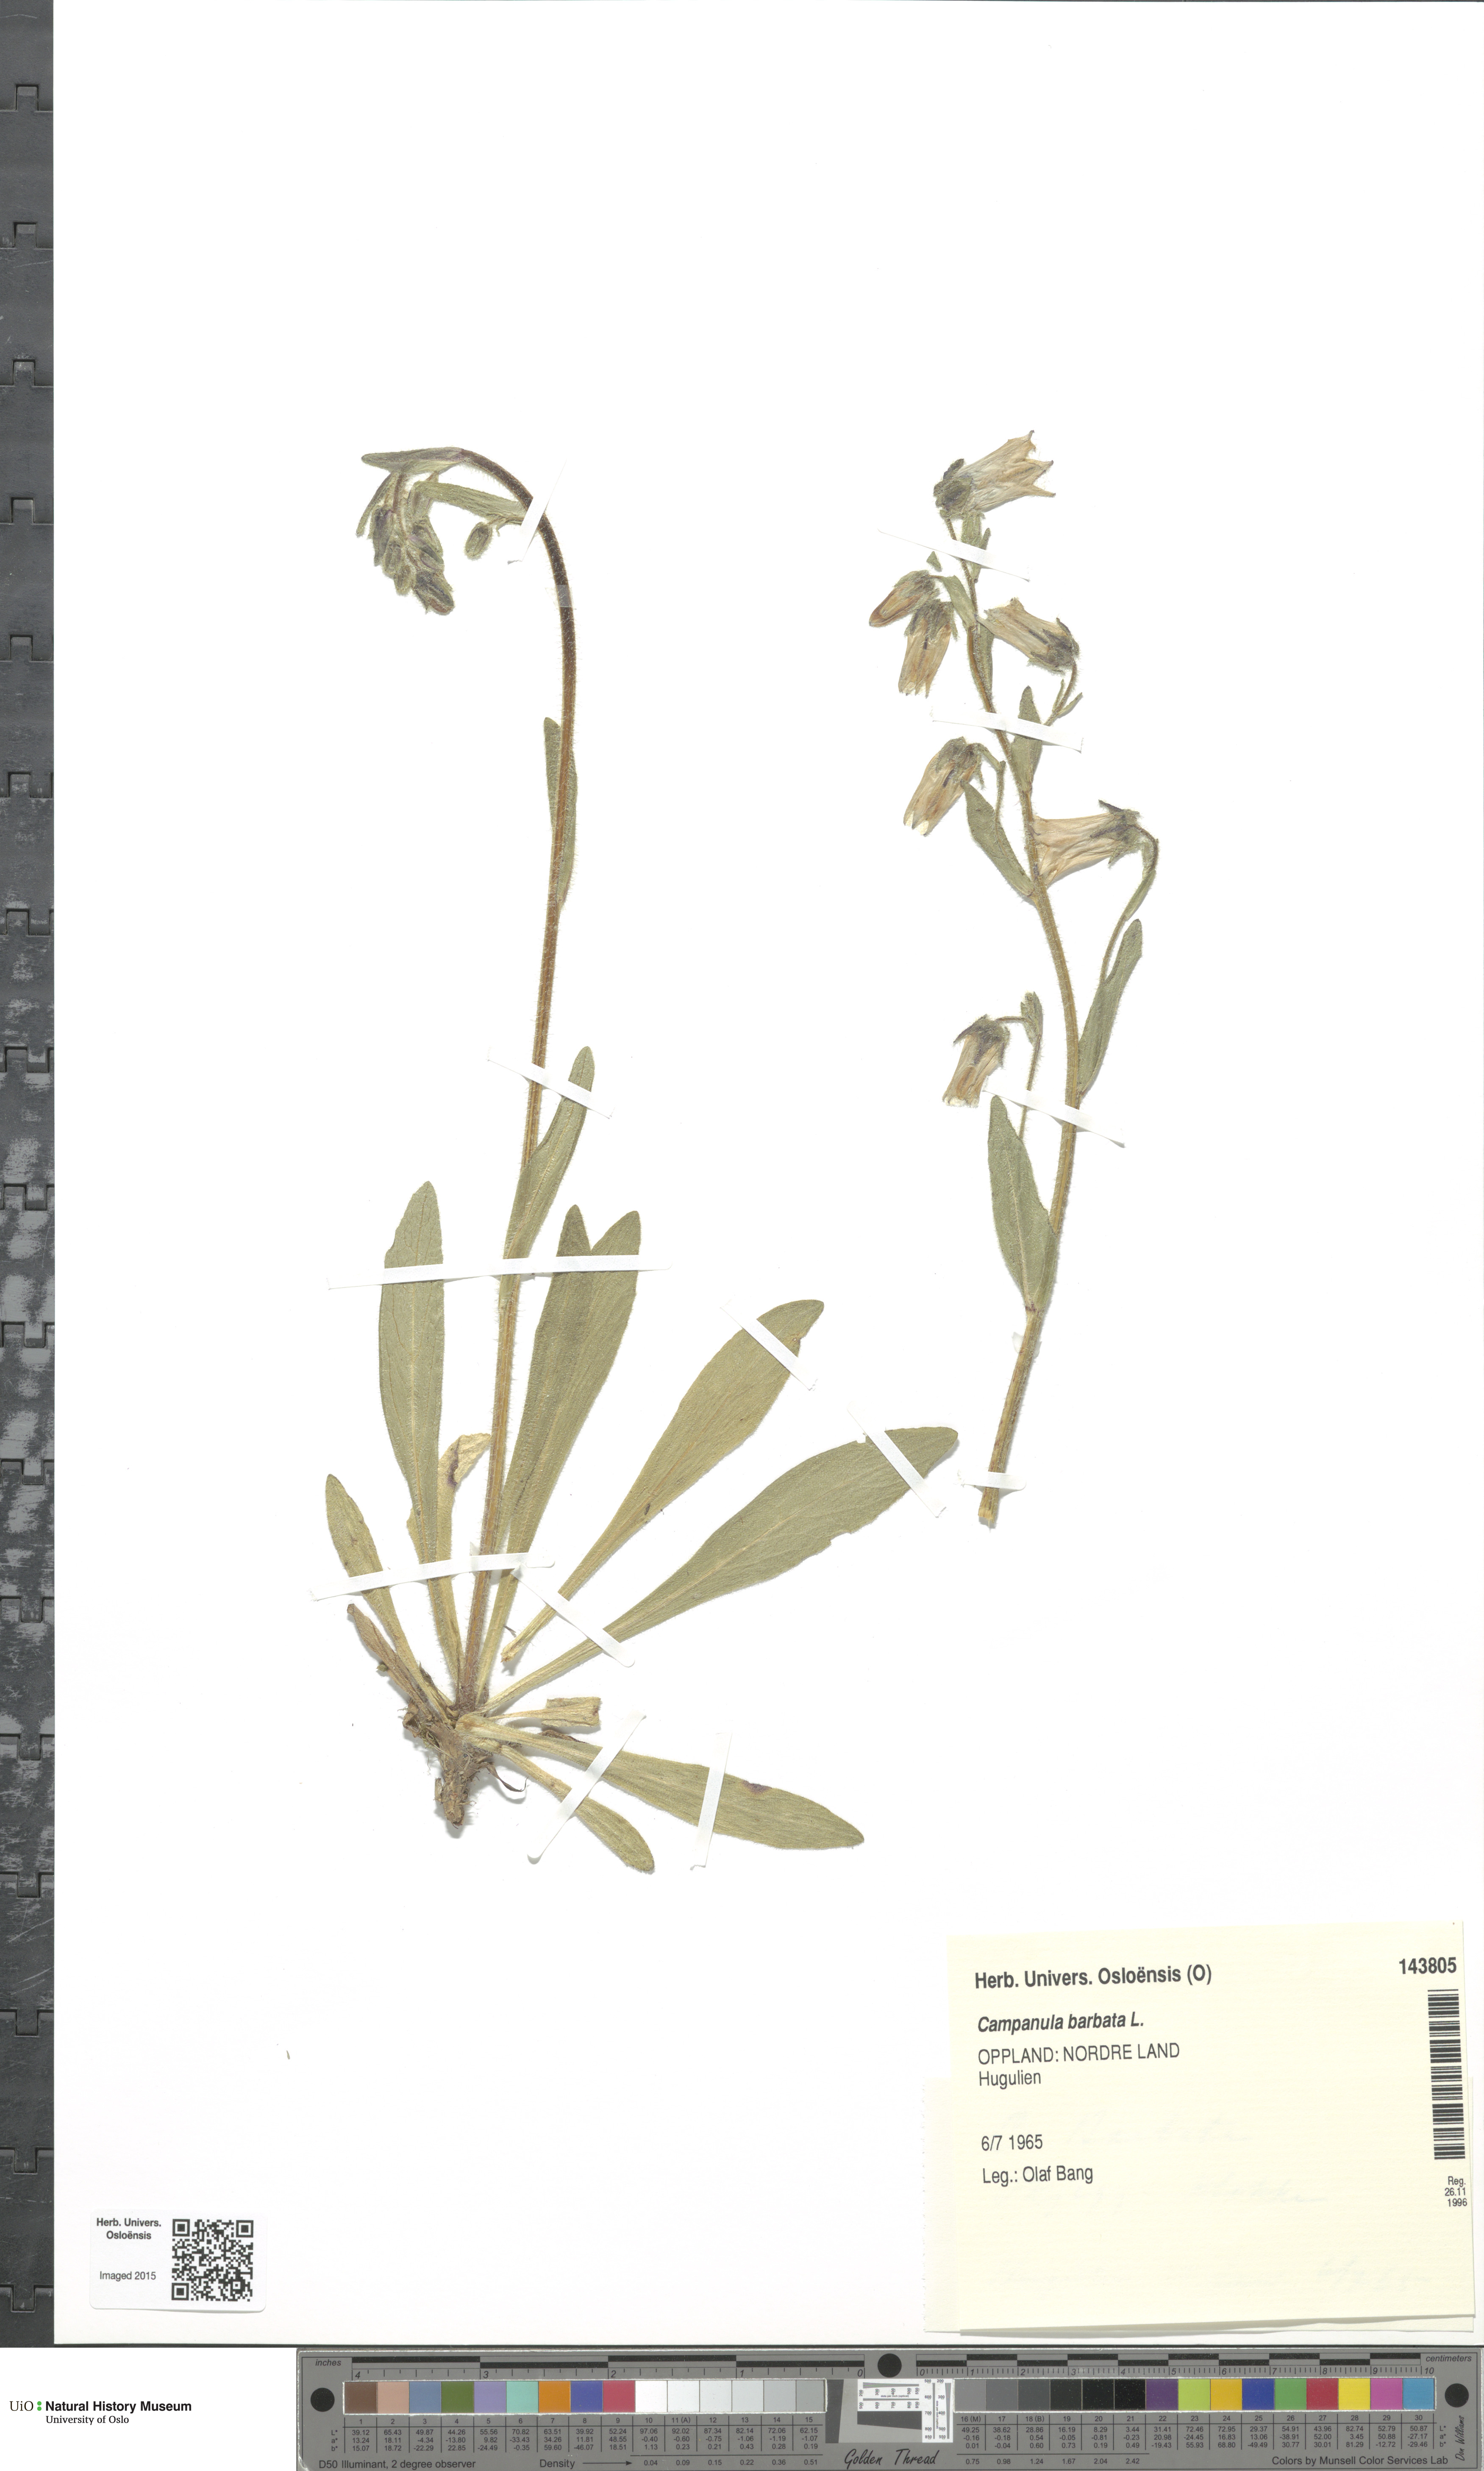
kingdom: Plantae
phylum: Tracheophyta
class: Magnoliopsida
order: Asterales
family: Campanulaceae
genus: Campanula
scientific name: Campanula barbata
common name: Bearded bellflower
